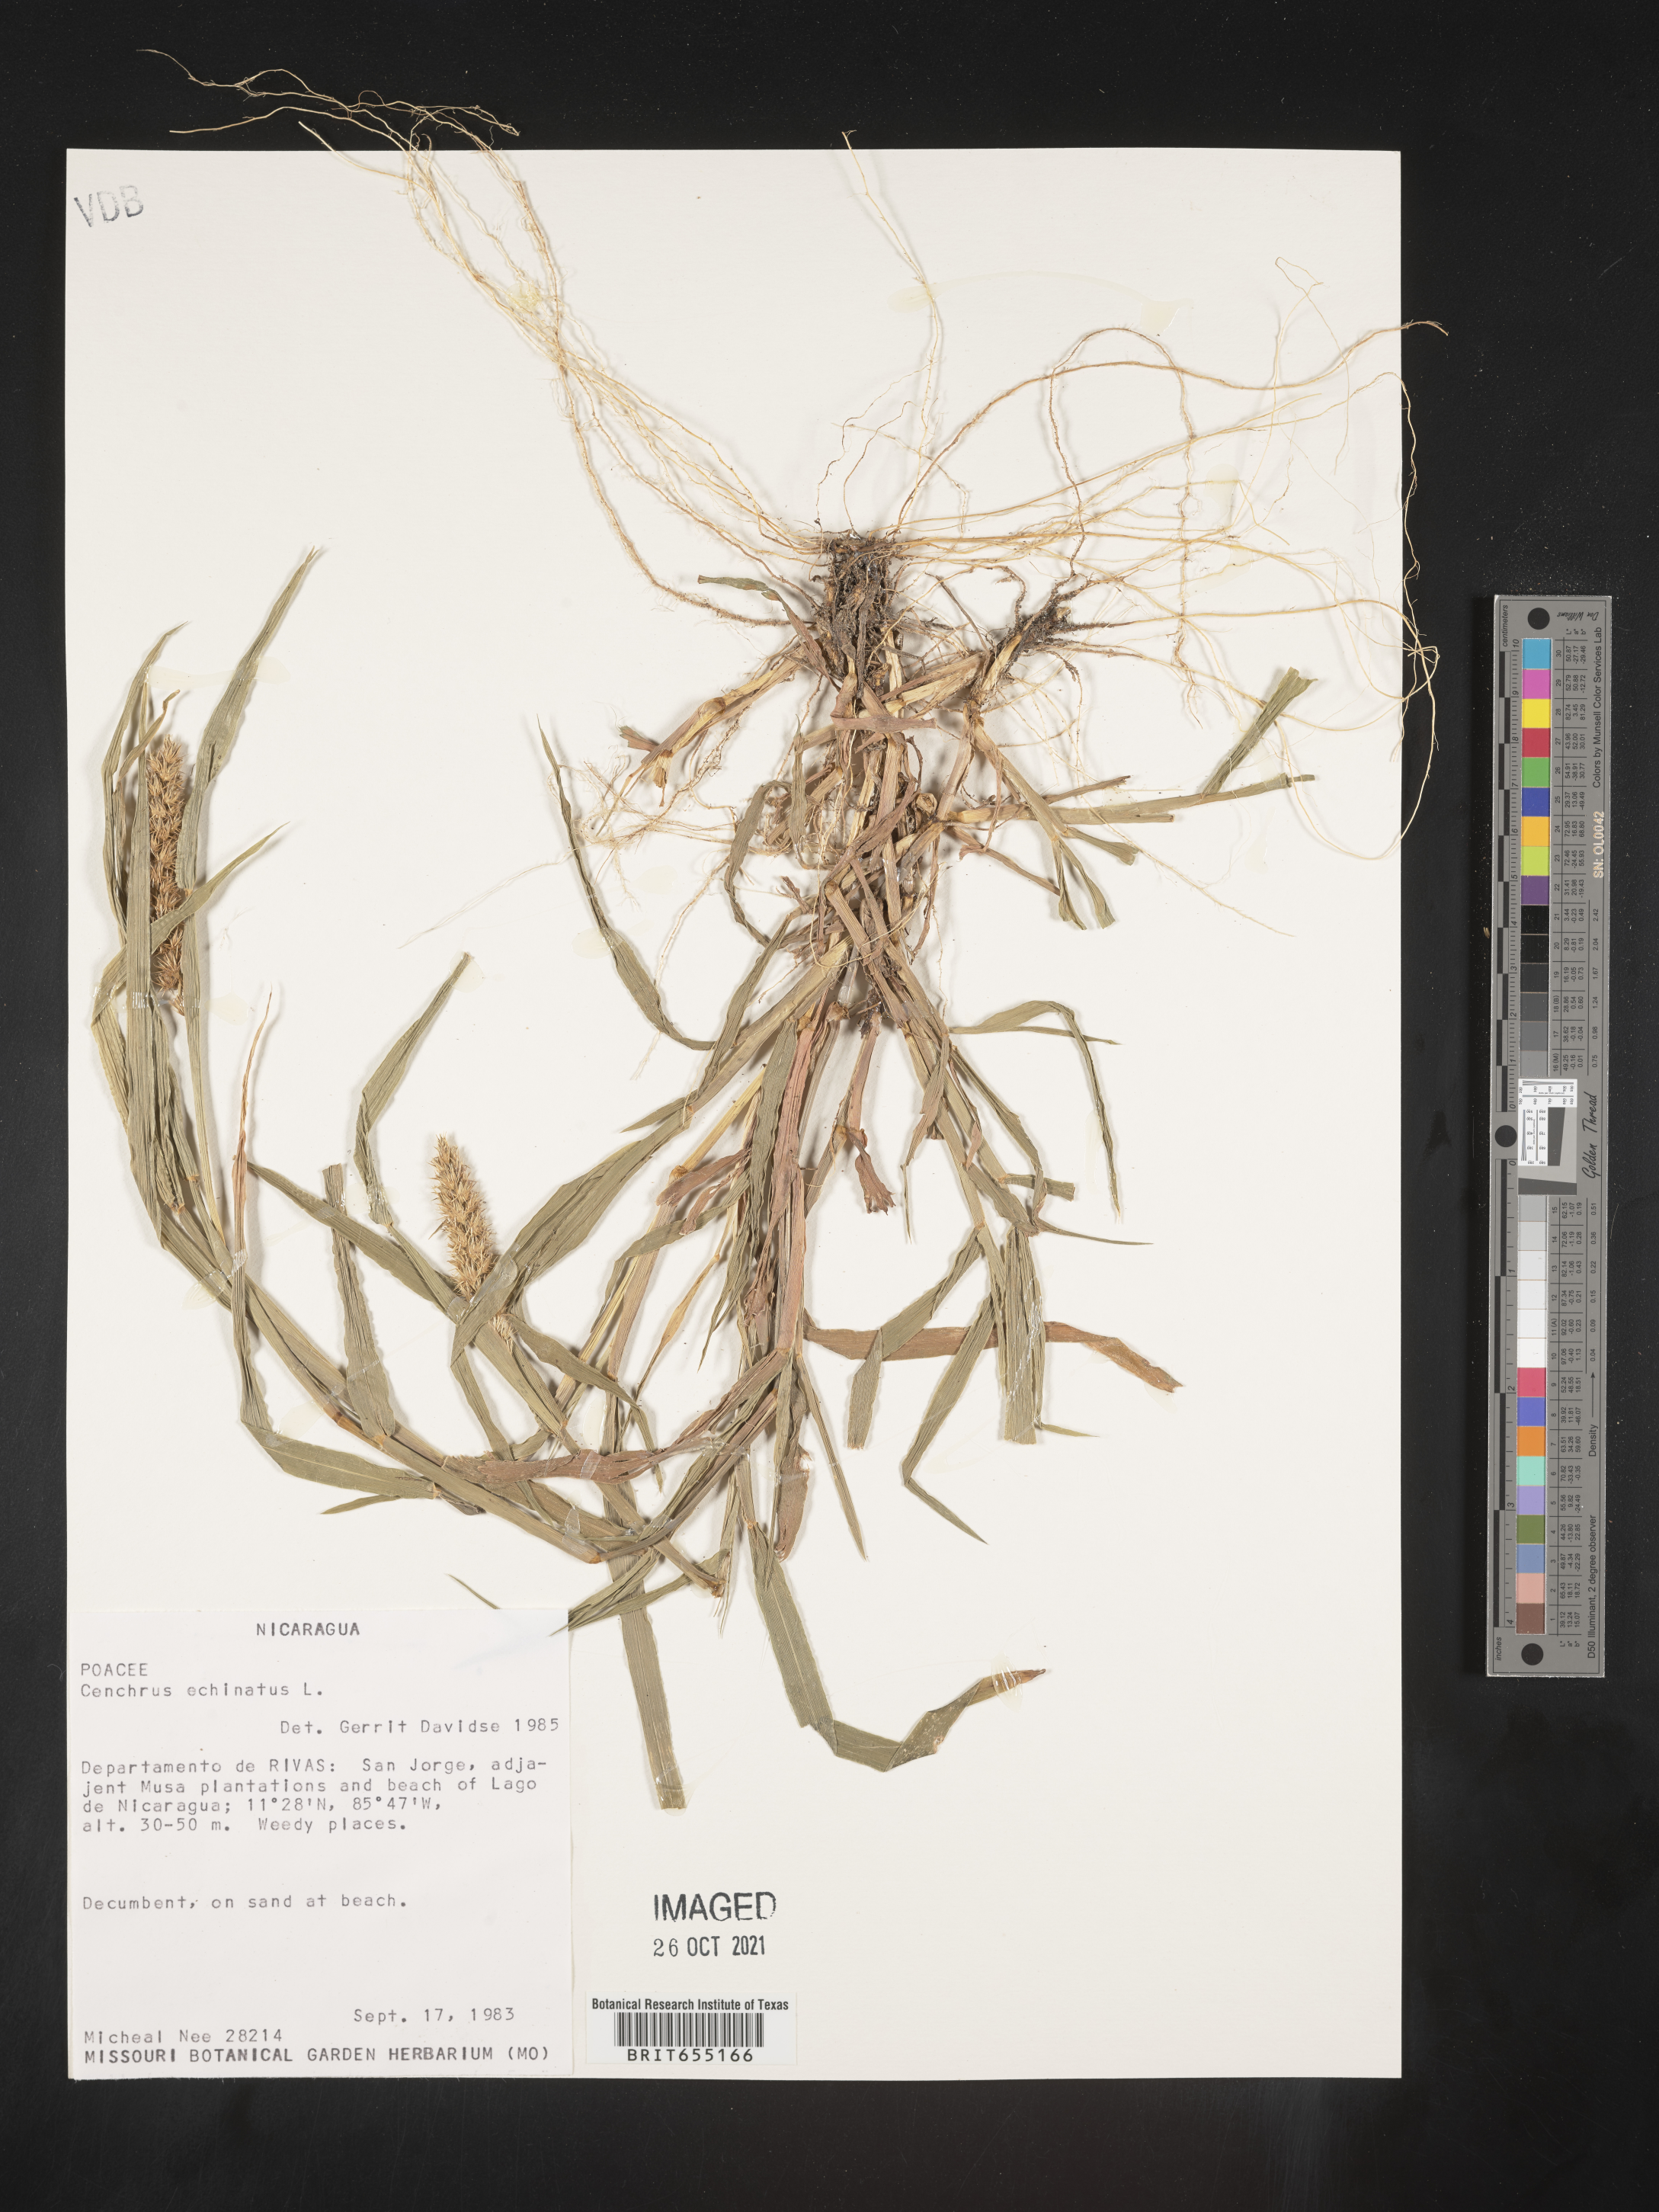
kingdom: Plantae
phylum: Tracheophyta
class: Liliopsida
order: Poales
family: Poaceae
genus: Cenchrus
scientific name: Cenchrus
